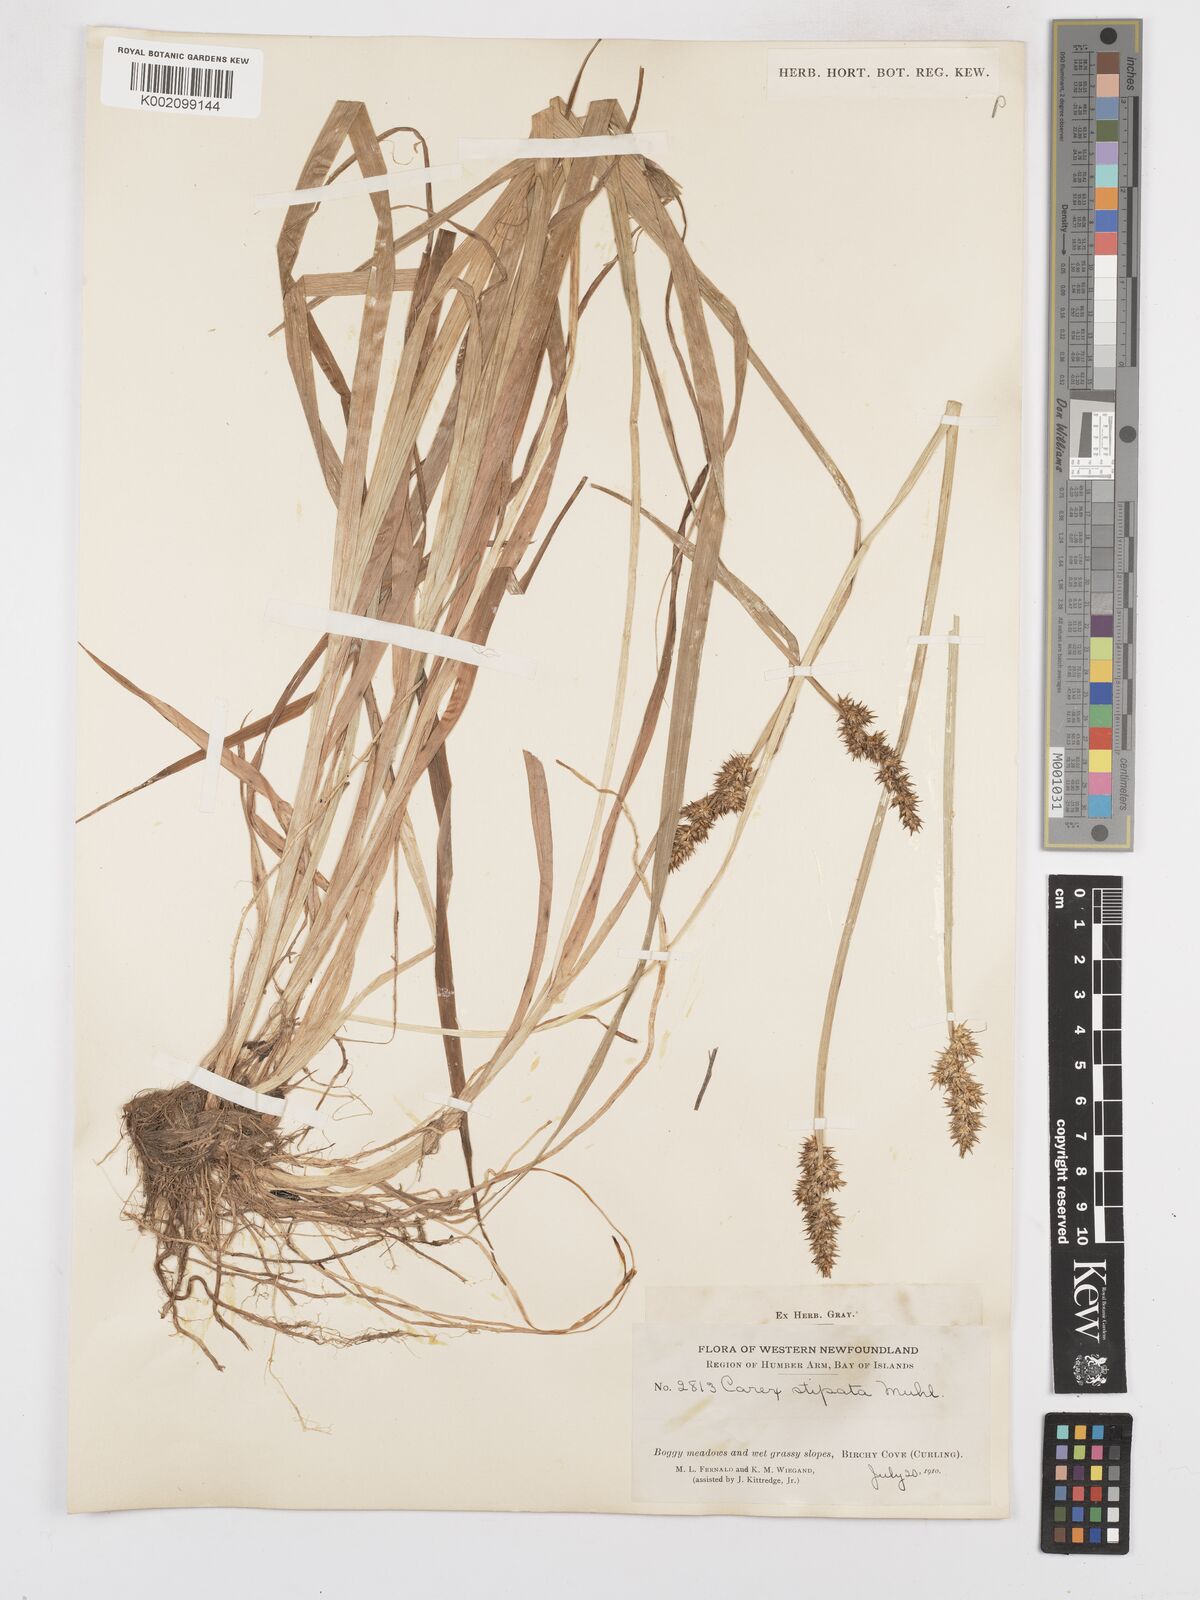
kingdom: Plantae
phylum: Tracheophyta
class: Liliopsida
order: Poales
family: Cyperaceae
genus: Carex
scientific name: Carex stipata
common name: Awl-fruited sedge
